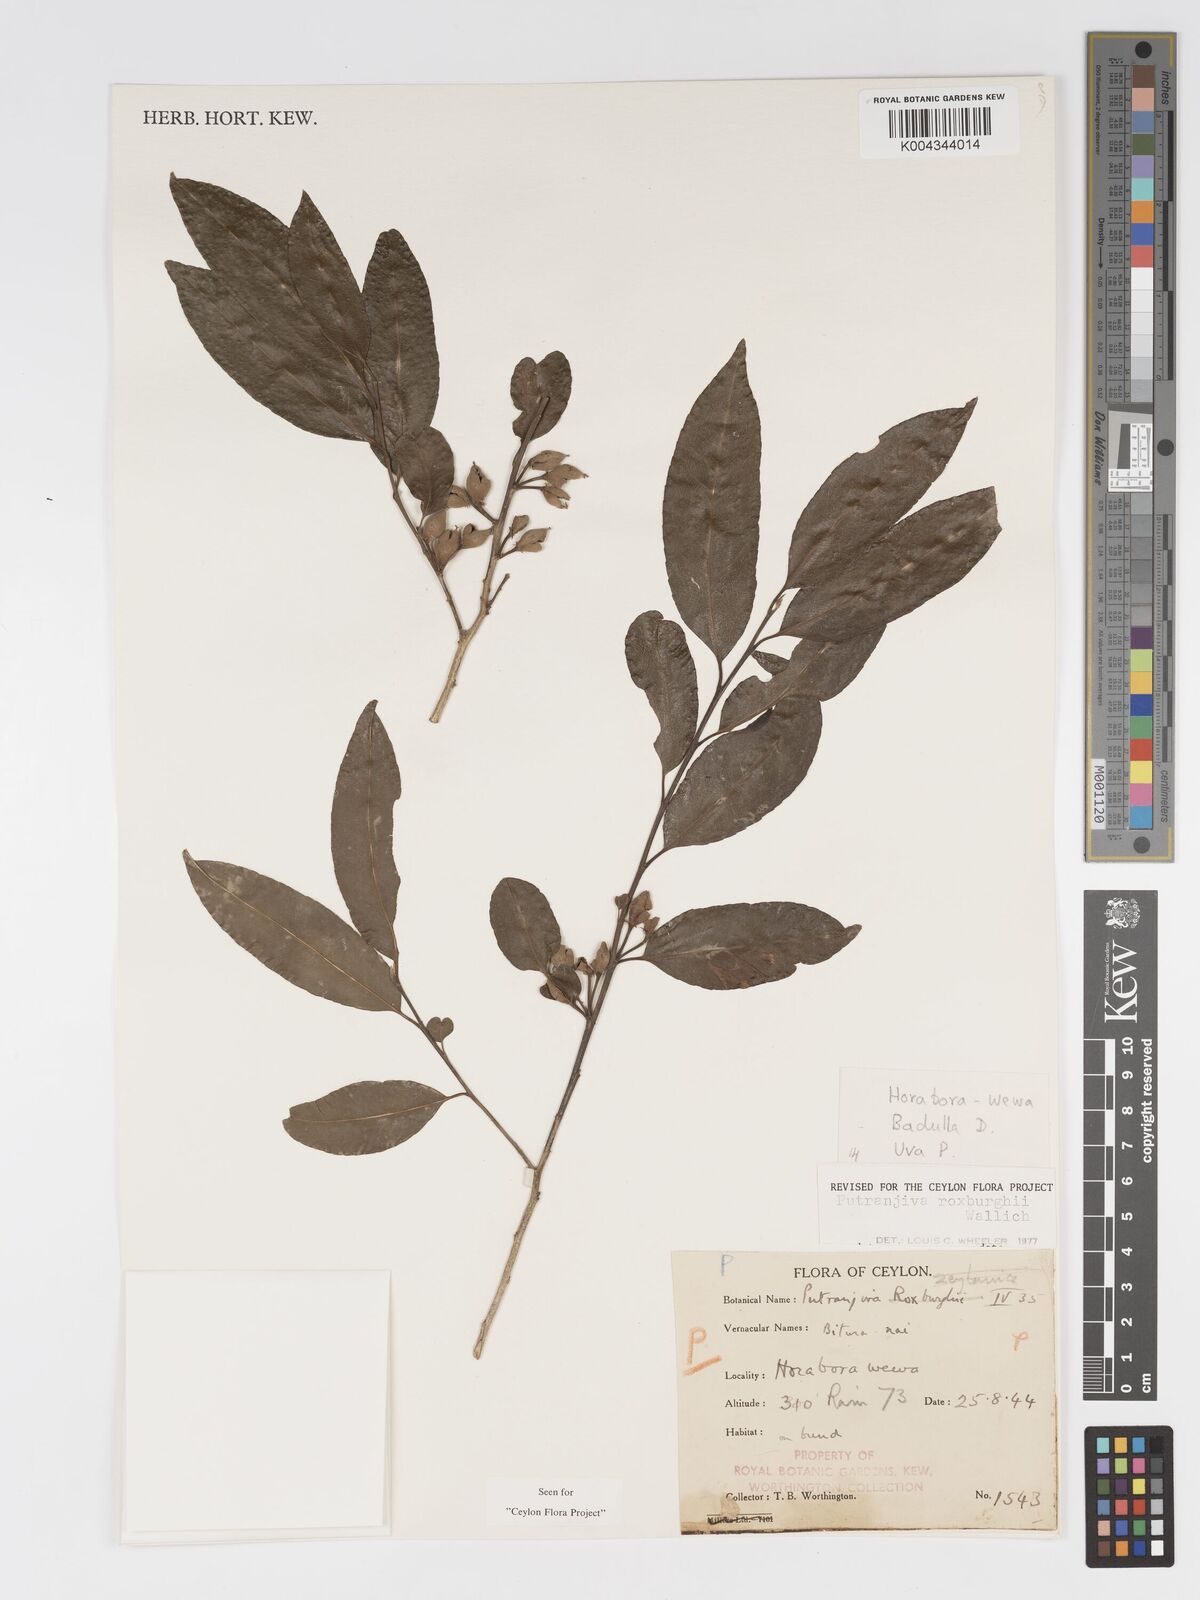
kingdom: Plantae
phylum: Tracheophyta
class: Magnoliopsida
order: Malpighiales
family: Putranjivaceae
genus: Putranjiva
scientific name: Putranjiva roxburghii
